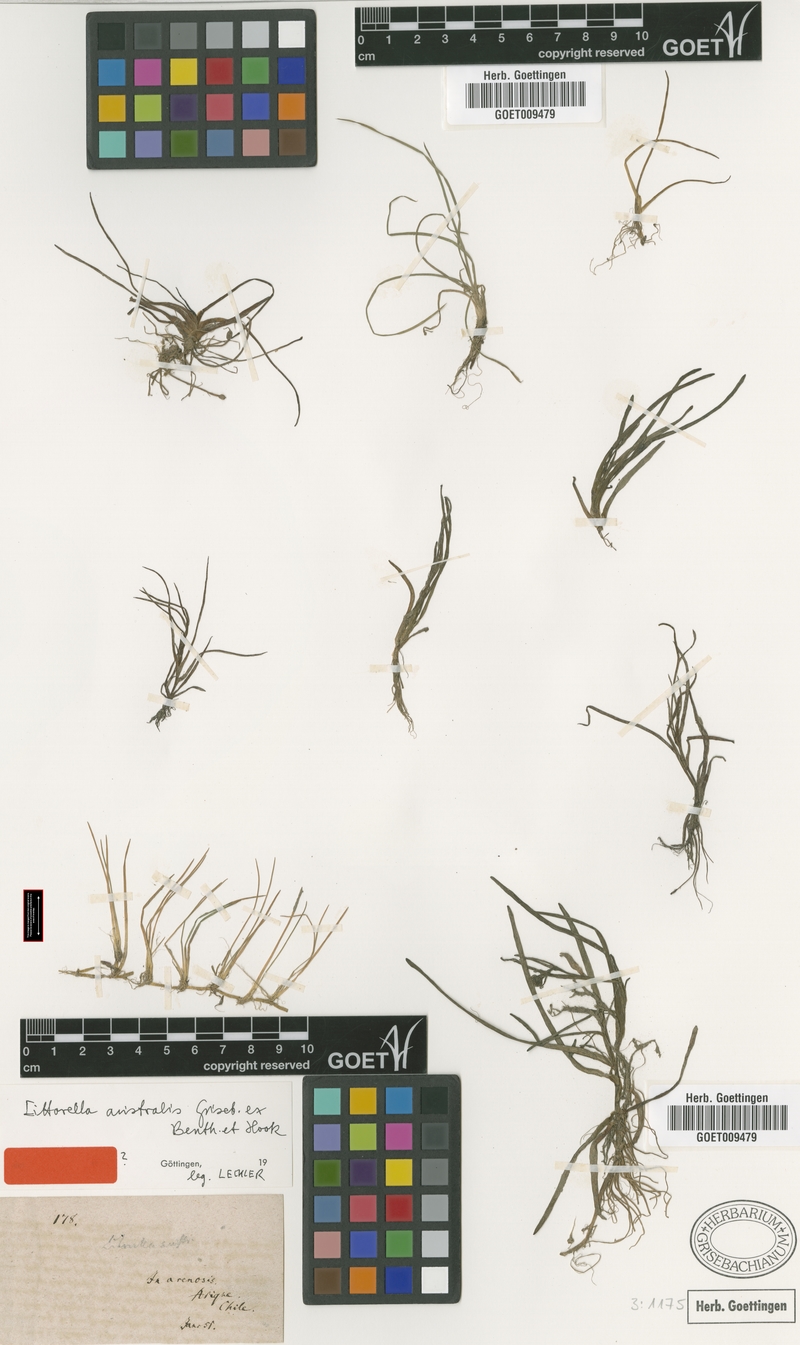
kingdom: Plantae
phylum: Tracheophyta
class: Magnoliopsida
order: Lamiales
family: Plantaginaceae
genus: Littorella
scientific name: Littorella australis
